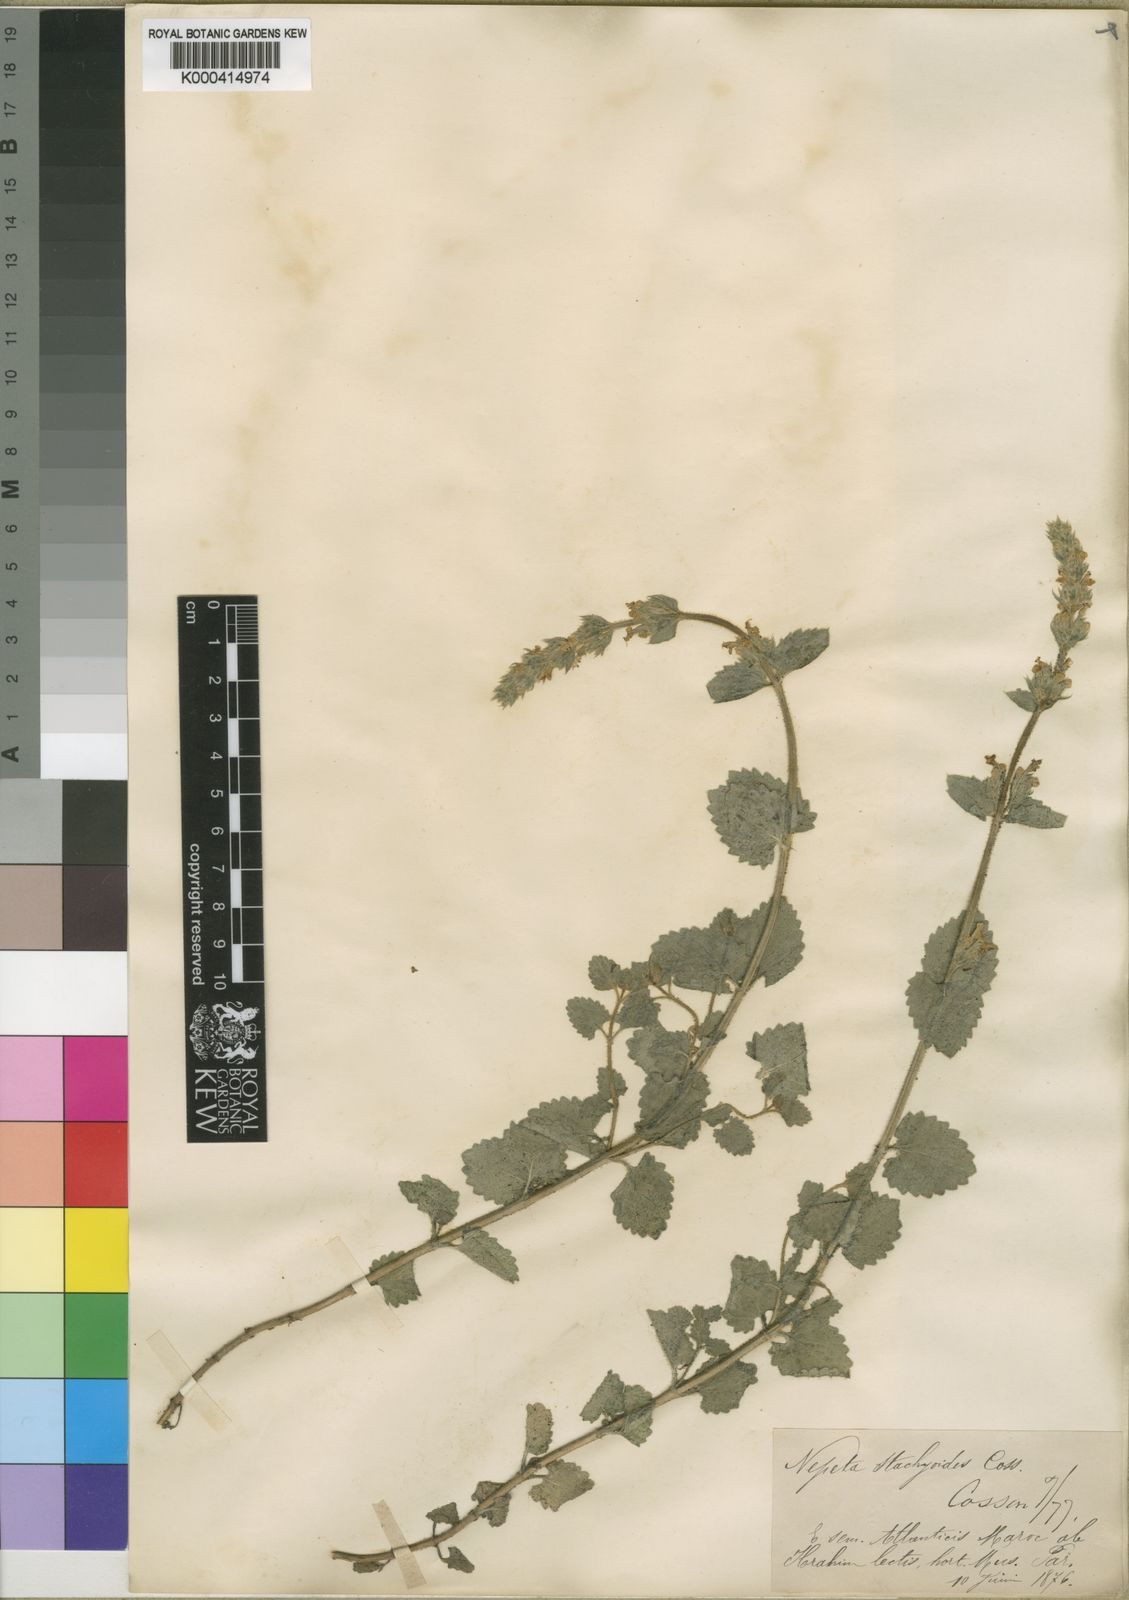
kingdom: Plantae
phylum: Tracheophyta
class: Magnoliopsida
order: Lamiales
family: Lamiaceae
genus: Nepeta
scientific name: Nepeta
